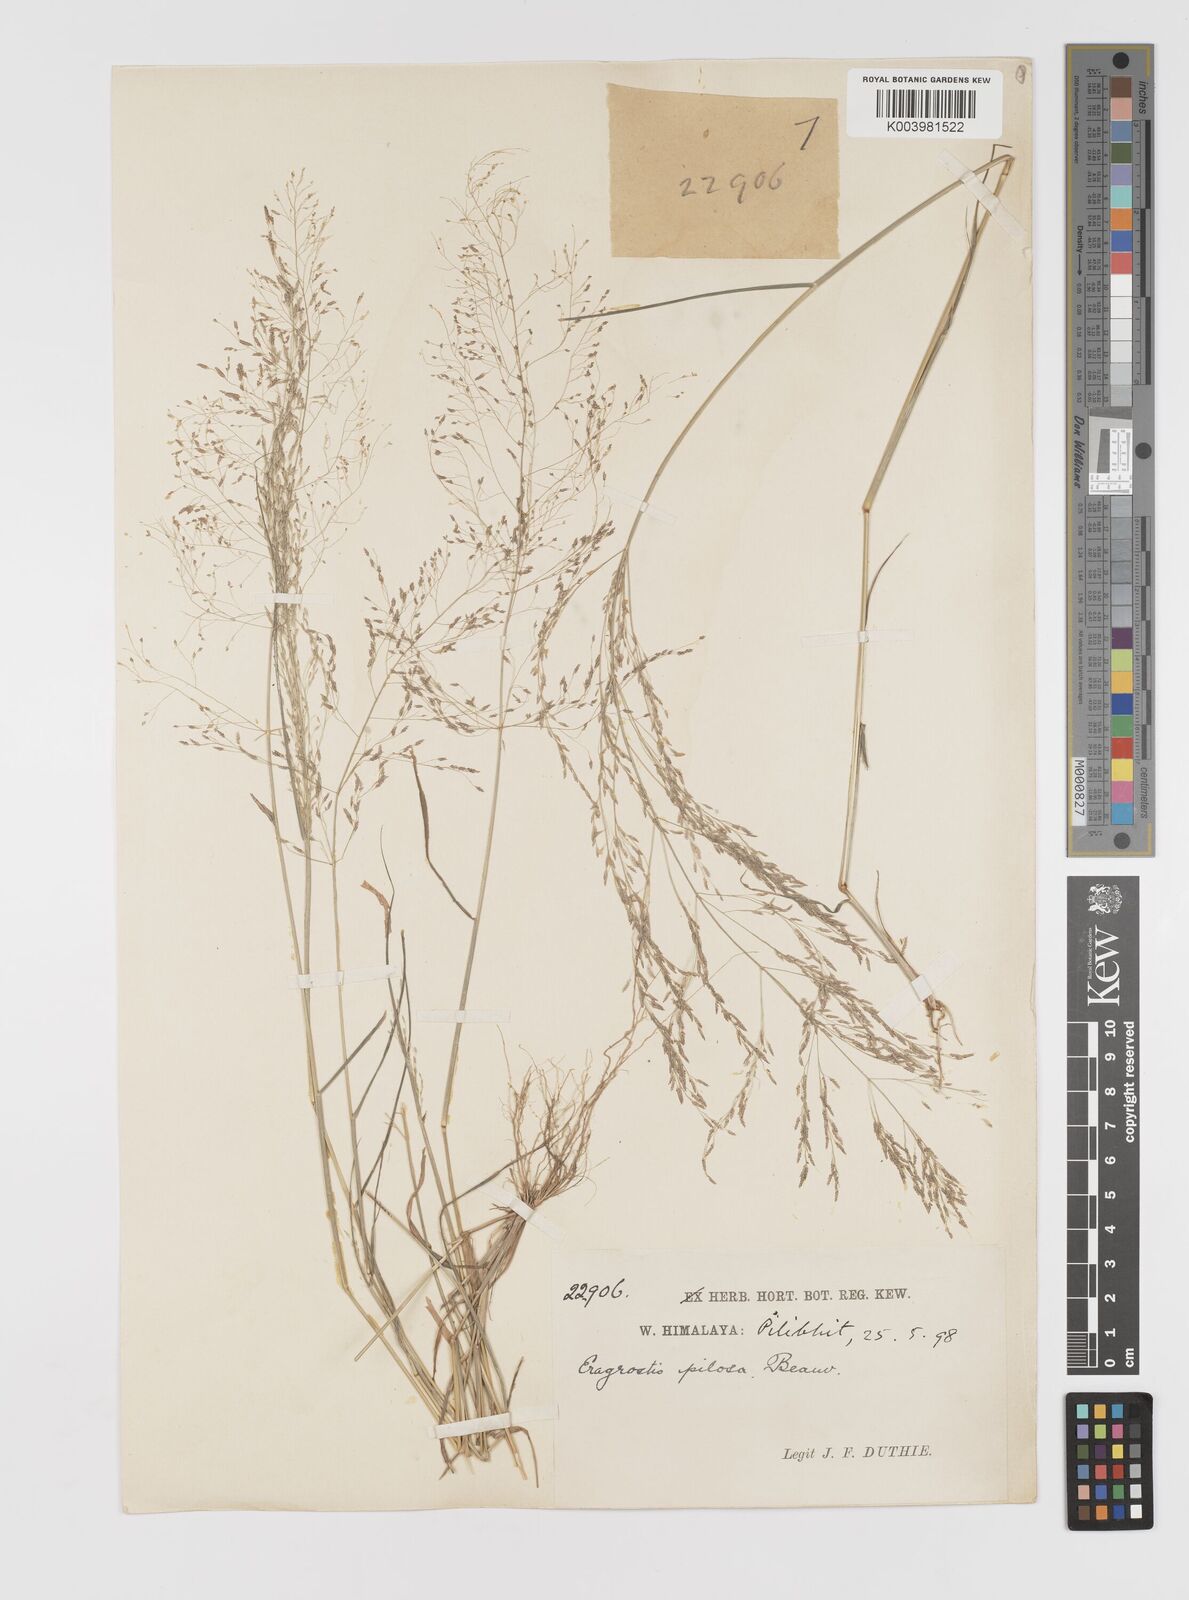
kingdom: Plantae
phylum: Tracheophyta
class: Liliopsida
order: Poales
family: Poaceae
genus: Eragrostis
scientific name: Eragrostis pilosa
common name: Indian lovegrass
